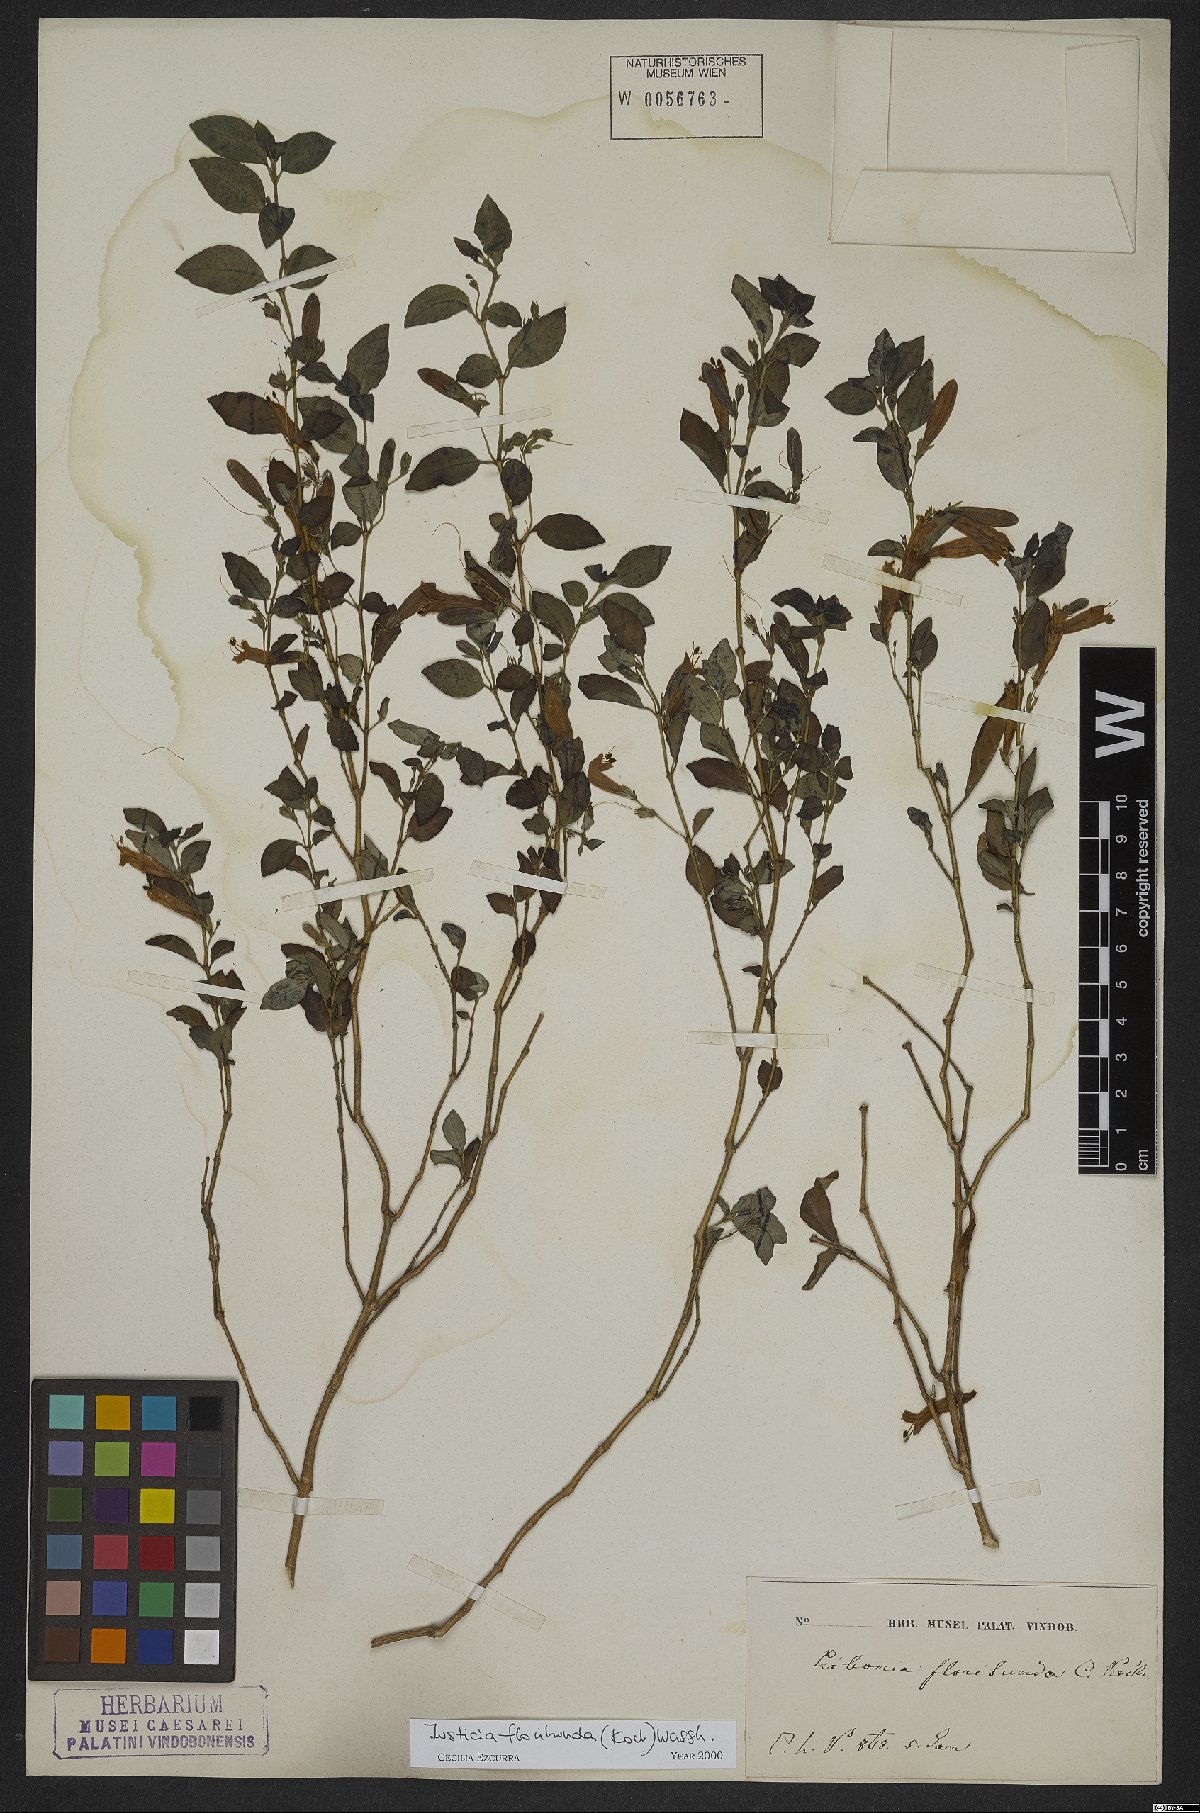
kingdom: Plantae
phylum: Tracheophyta
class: Magnoliopsida
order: Lamiales
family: Acanthaceae
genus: Justicia
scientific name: Justicia floribunda
